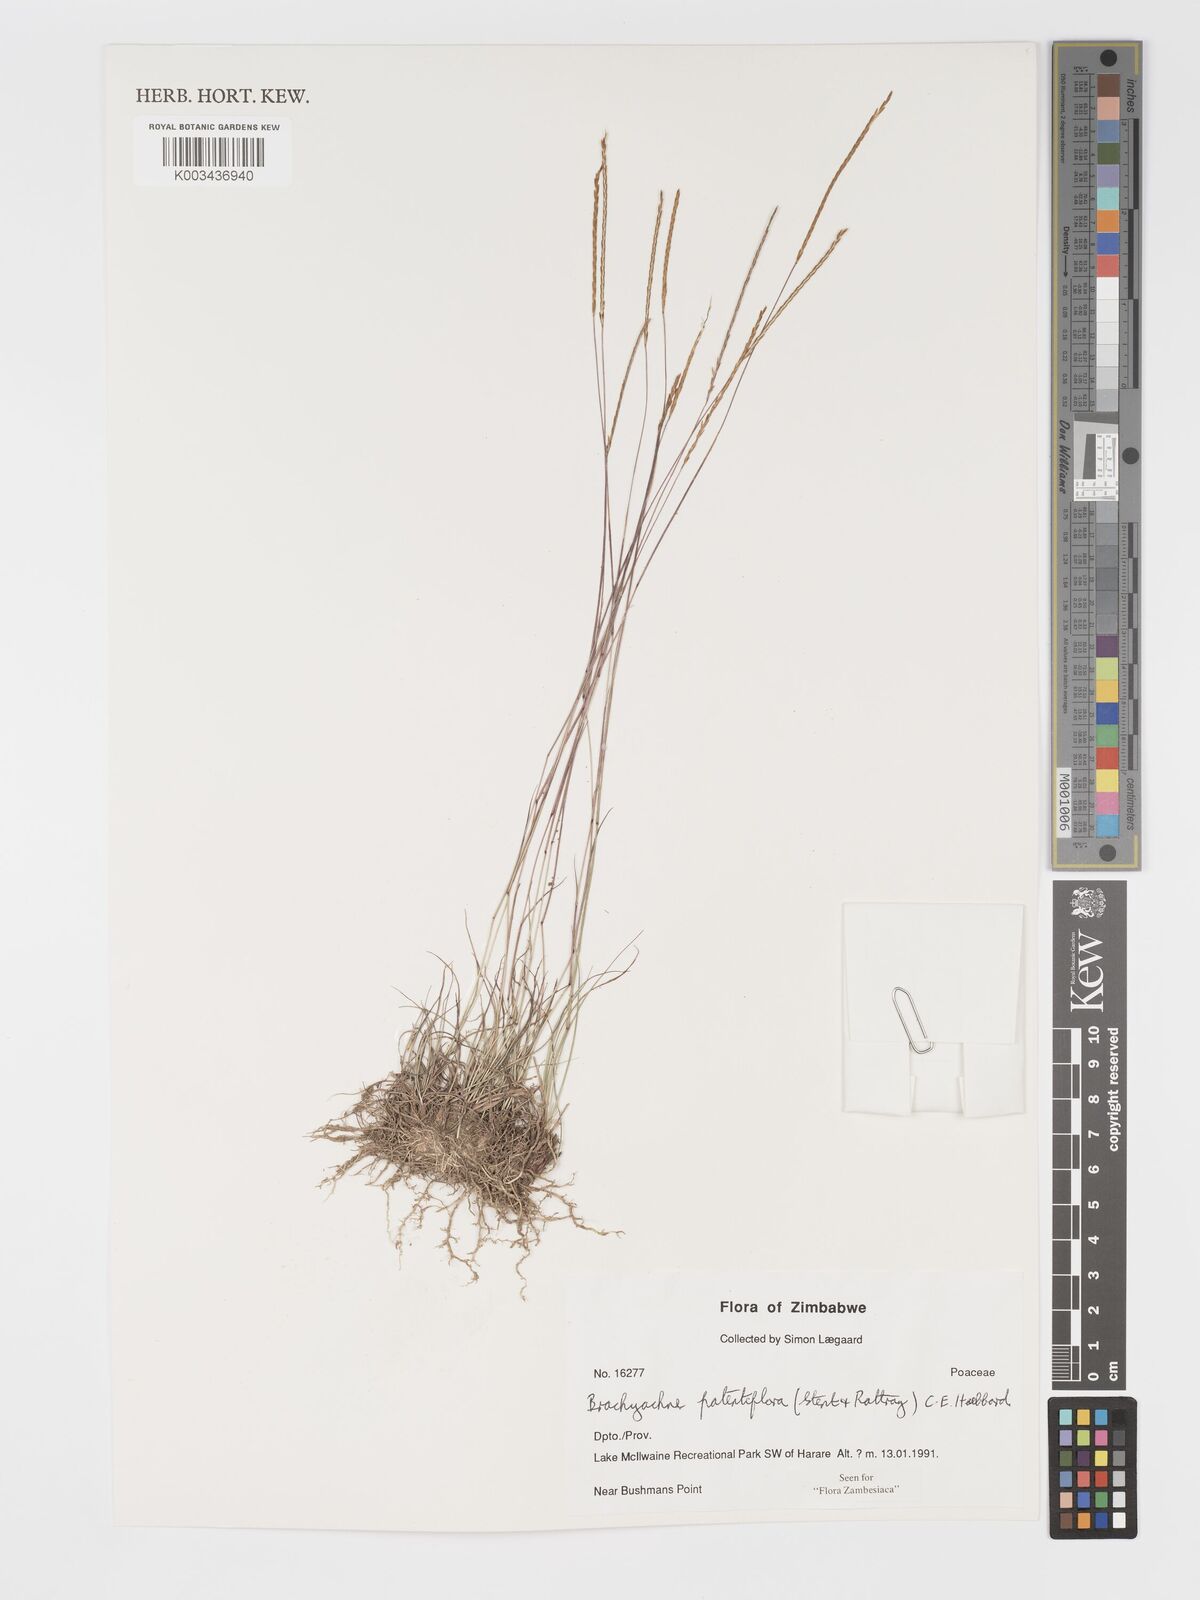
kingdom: Plantae
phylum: Tracheophyta
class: Liliopsida
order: Poales
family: Poaceae
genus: Micrachne
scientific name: Micrachne patentiflora
